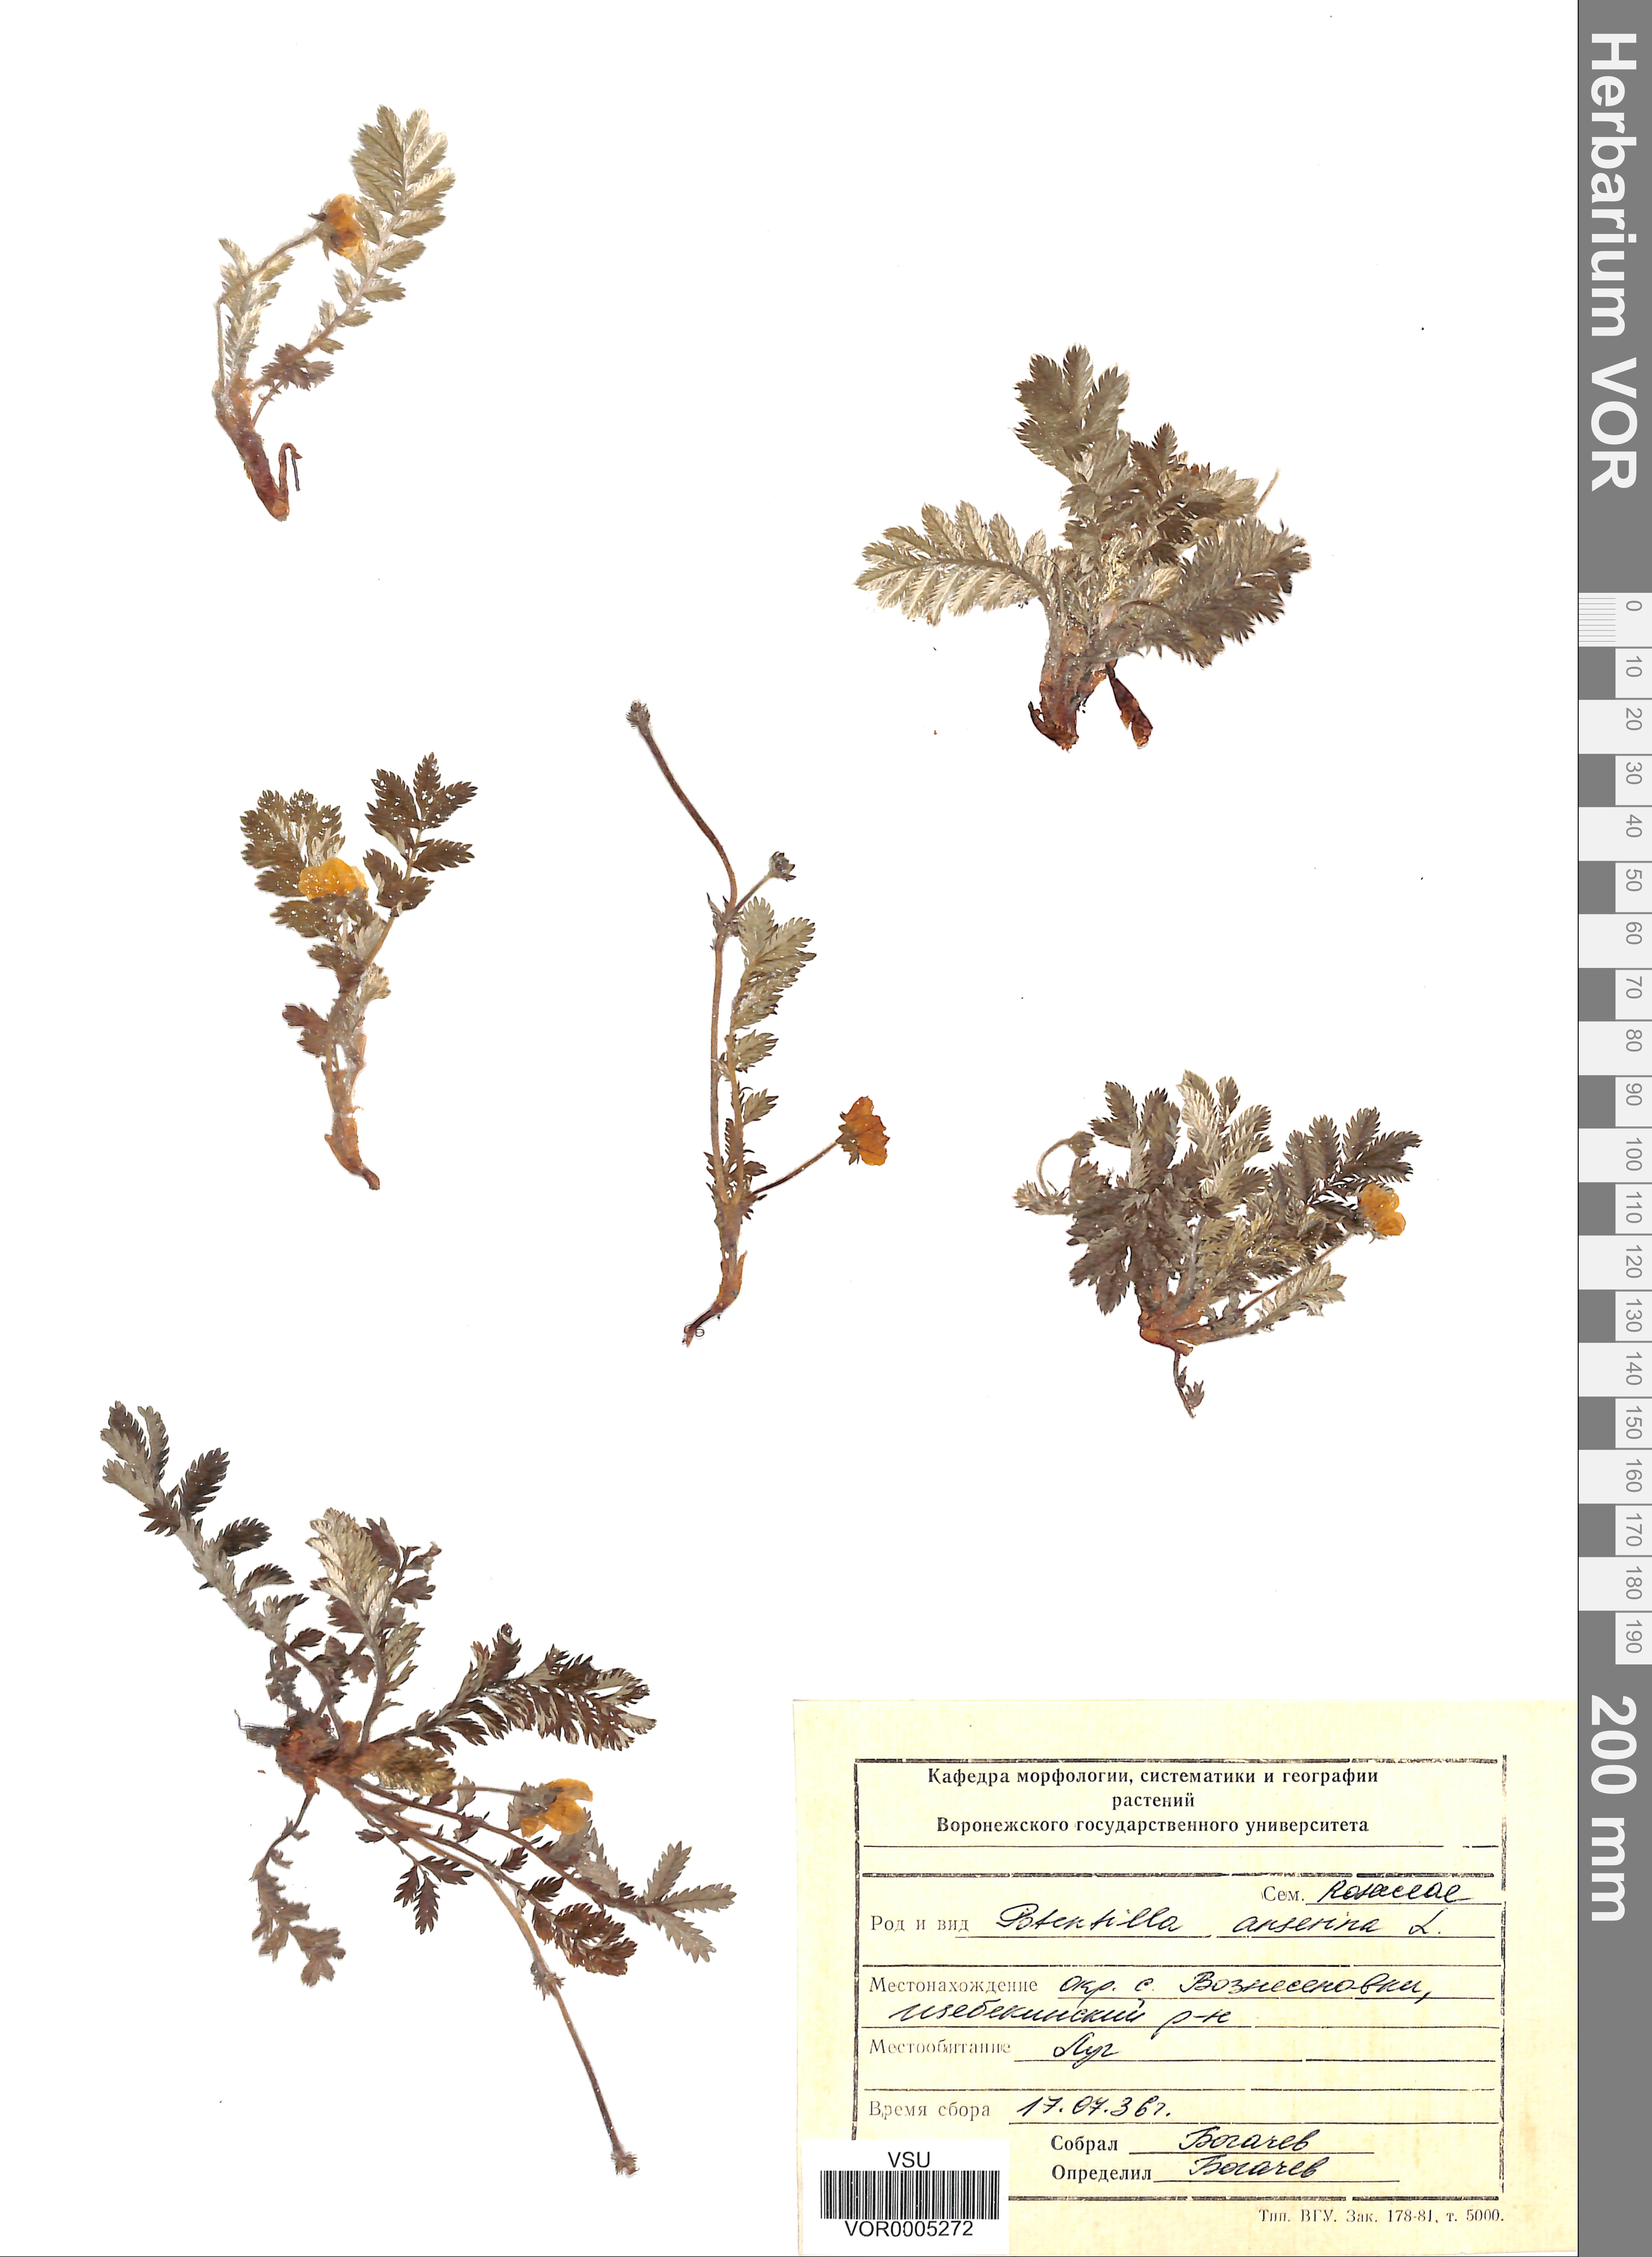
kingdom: Plantae
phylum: Tracheophyta
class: Magnoliopsida
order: Rosales
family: Rosaceae
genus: Argentina
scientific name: Argentina anserina
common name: Common silverweed
